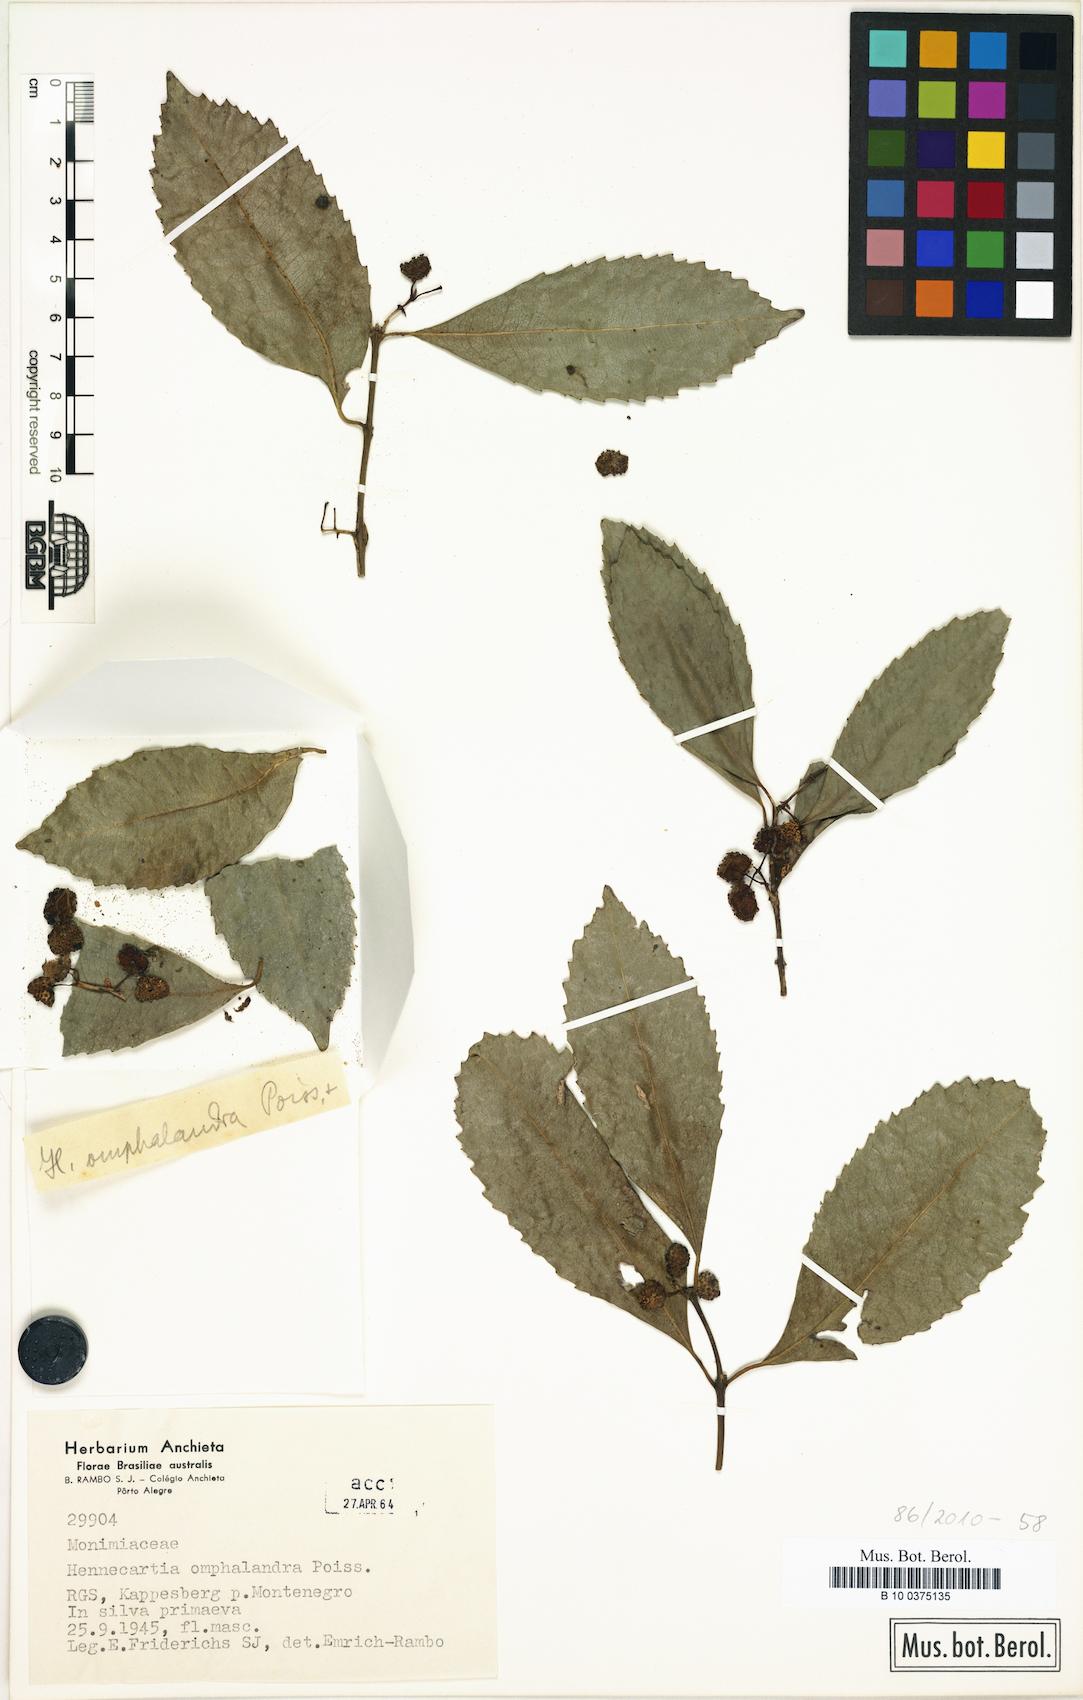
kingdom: Plantae
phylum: Tracheophyta
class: Magnoliopsida
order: Laurales
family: Monimiaceae
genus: Hennecartia
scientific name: Hennecartia omphalandra
